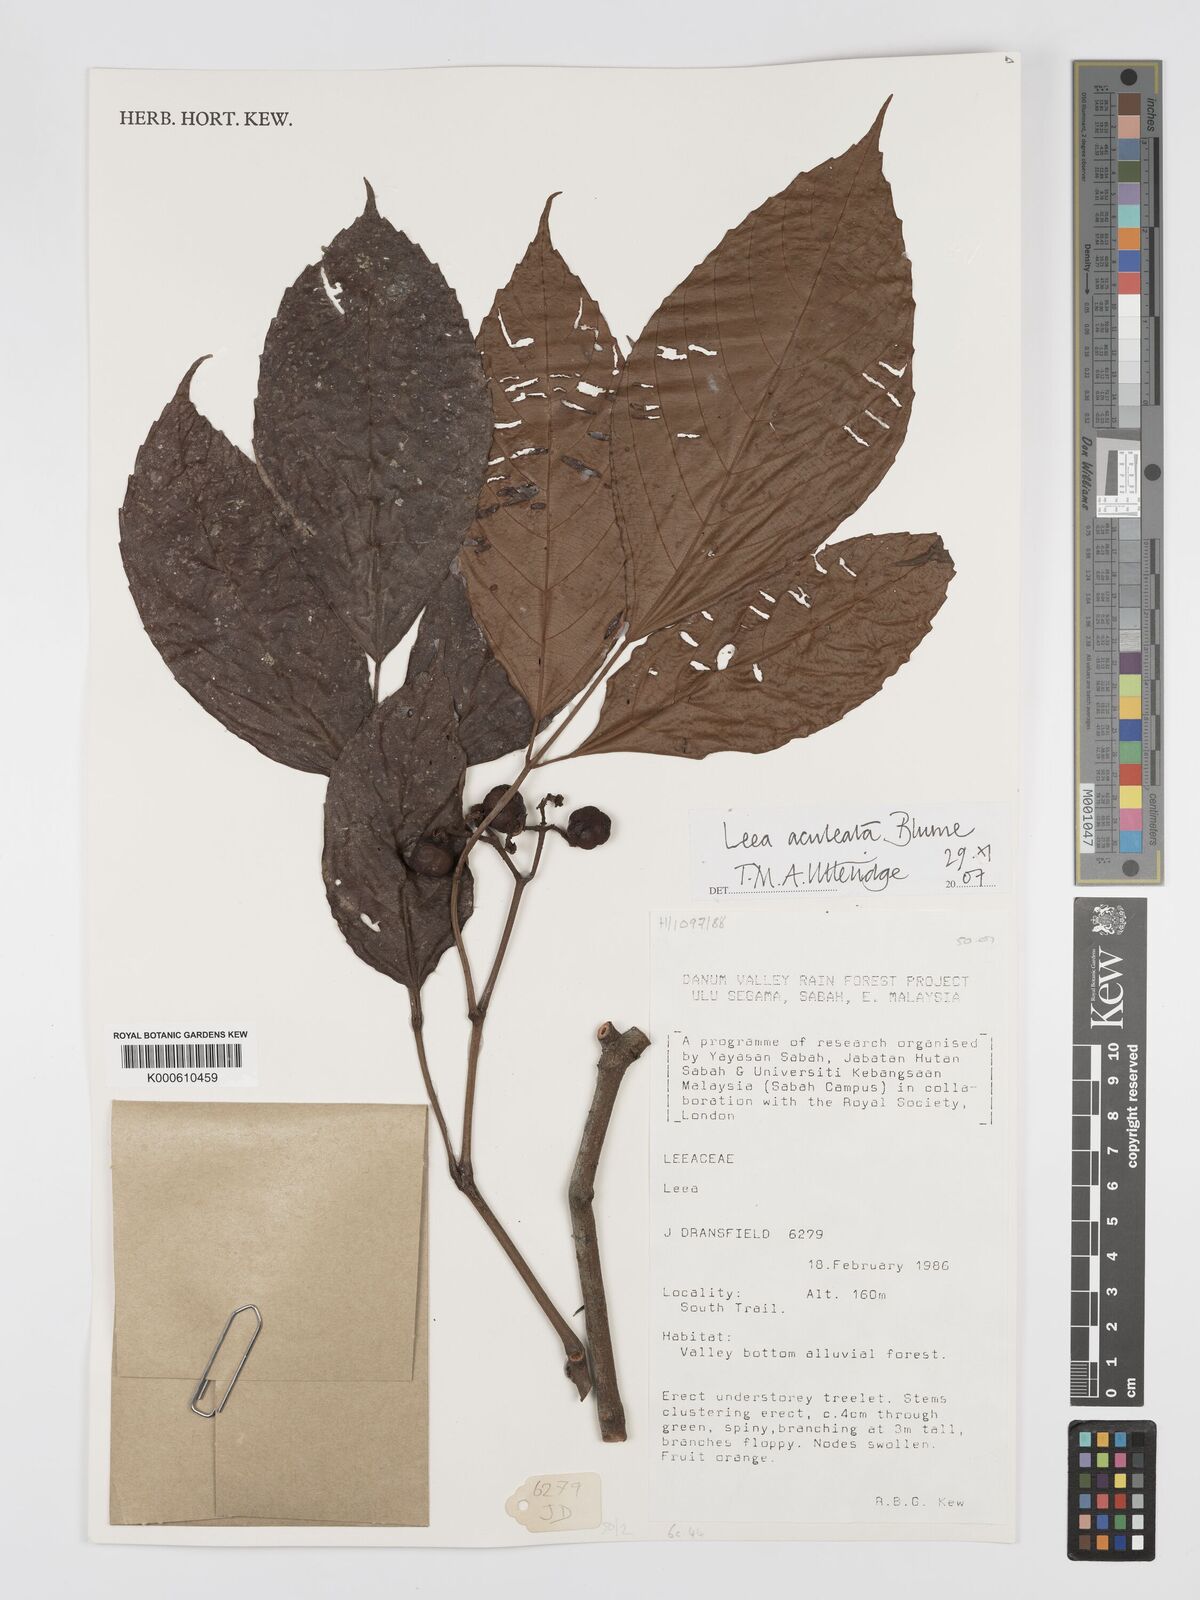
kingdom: Plantae
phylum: Tracheophyta
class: Magnoliopsida
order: Vitales
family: Vitaceae
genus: Leea
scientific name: Leea aculeata
